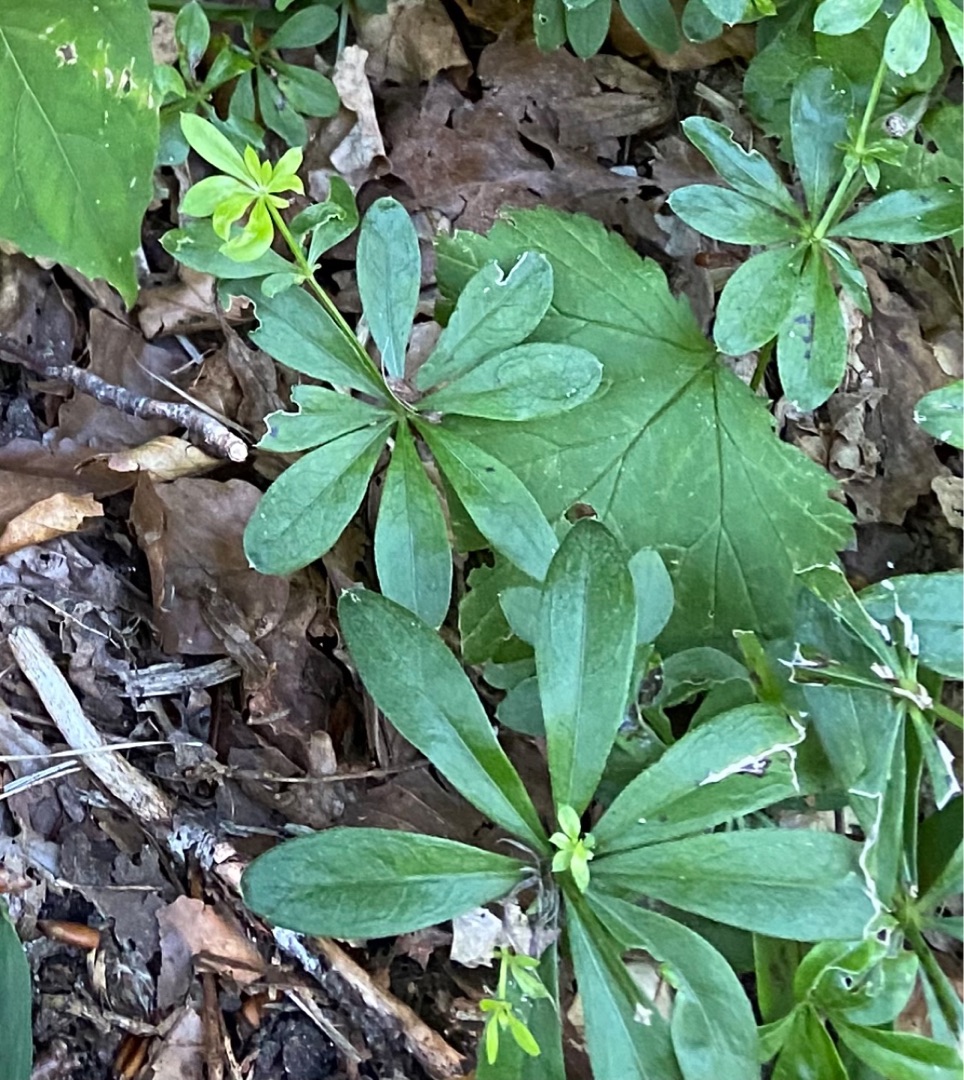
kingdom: Plantae
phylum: Tracheophyta
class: Magnoliopsida
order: Gentianales
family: Rubiaceae
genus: Galium
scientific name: Galium odoratum
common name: Skovmærke
